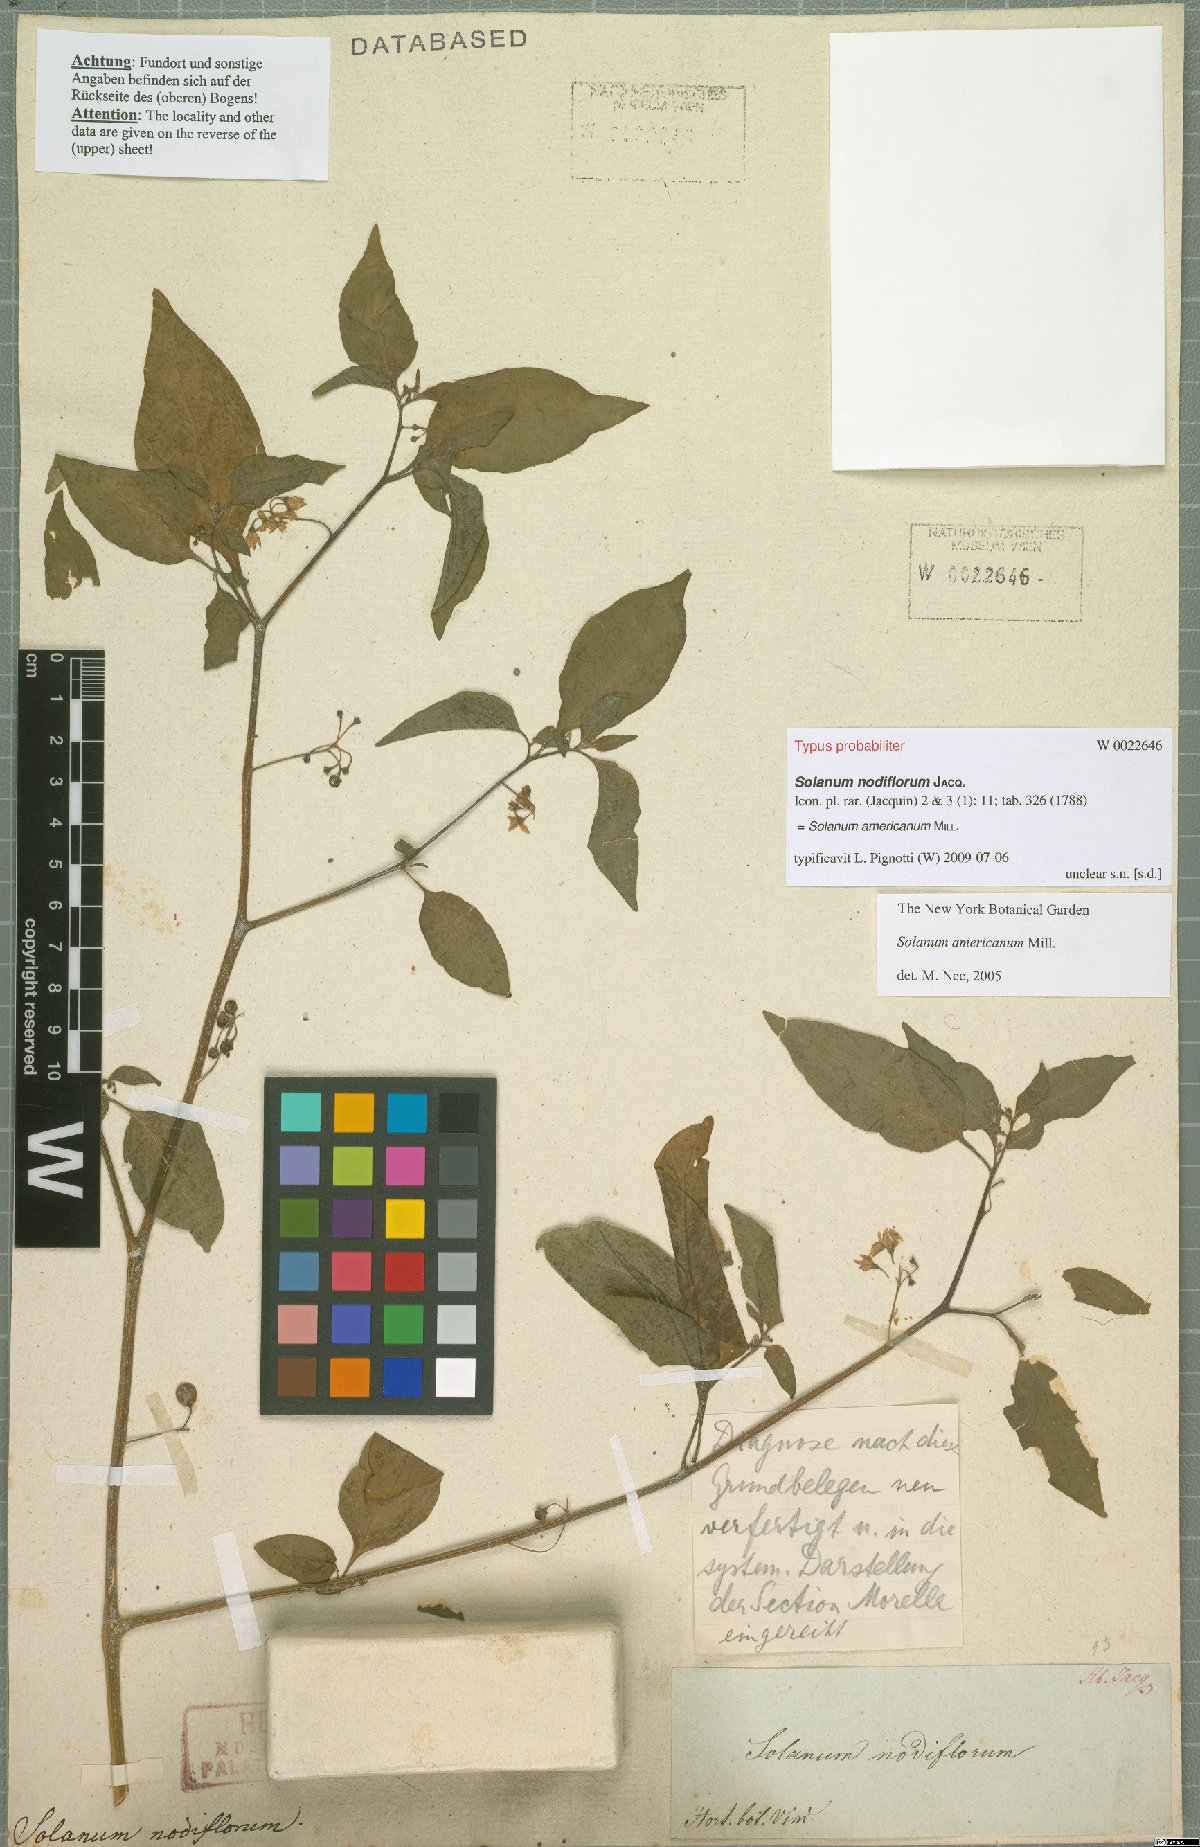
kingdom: Plantae
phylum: Tracheophyta
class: Magnoliopsida
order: Solanales
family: Solanaceae
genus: Solanum
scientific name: Solanum americanum
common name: American black nightshade
